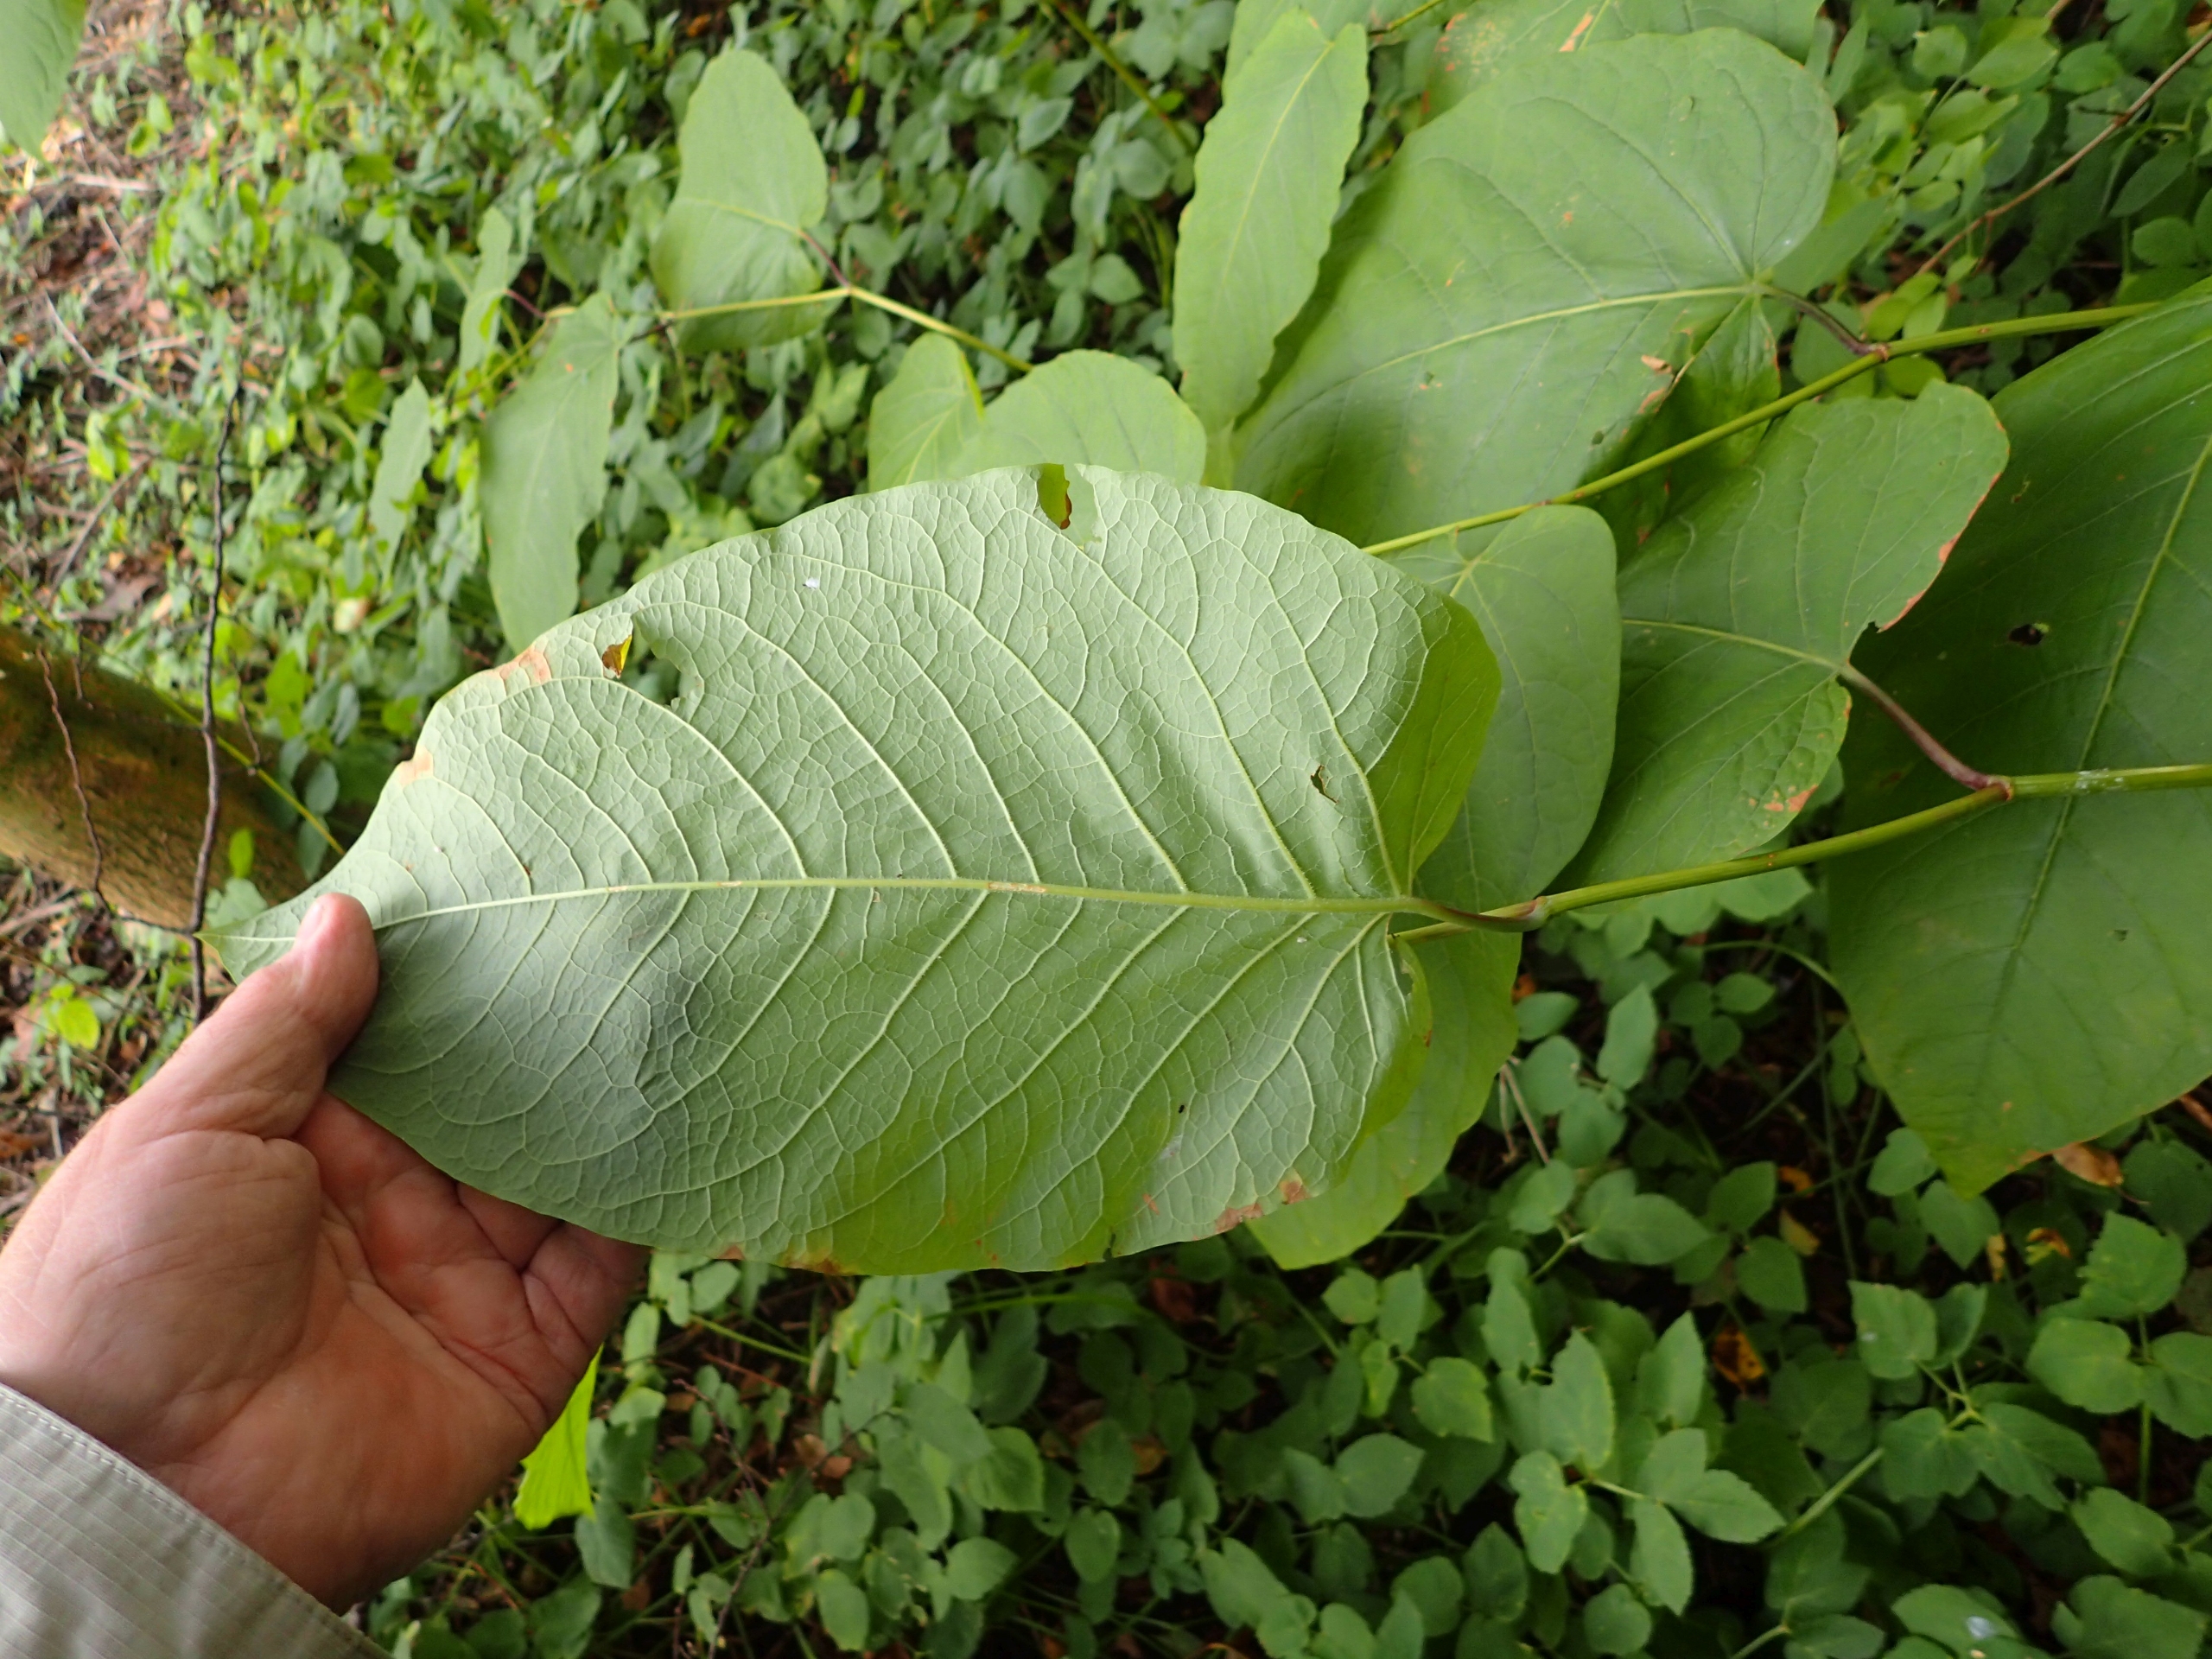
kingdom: Plantae
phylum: Tracheophyta
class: Magnoliopsida
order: Caryophyllales
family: Polygonaceae
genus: Reynoutria
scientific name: Reynoutria sachalinensis
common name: Kæmpe-pileurt
